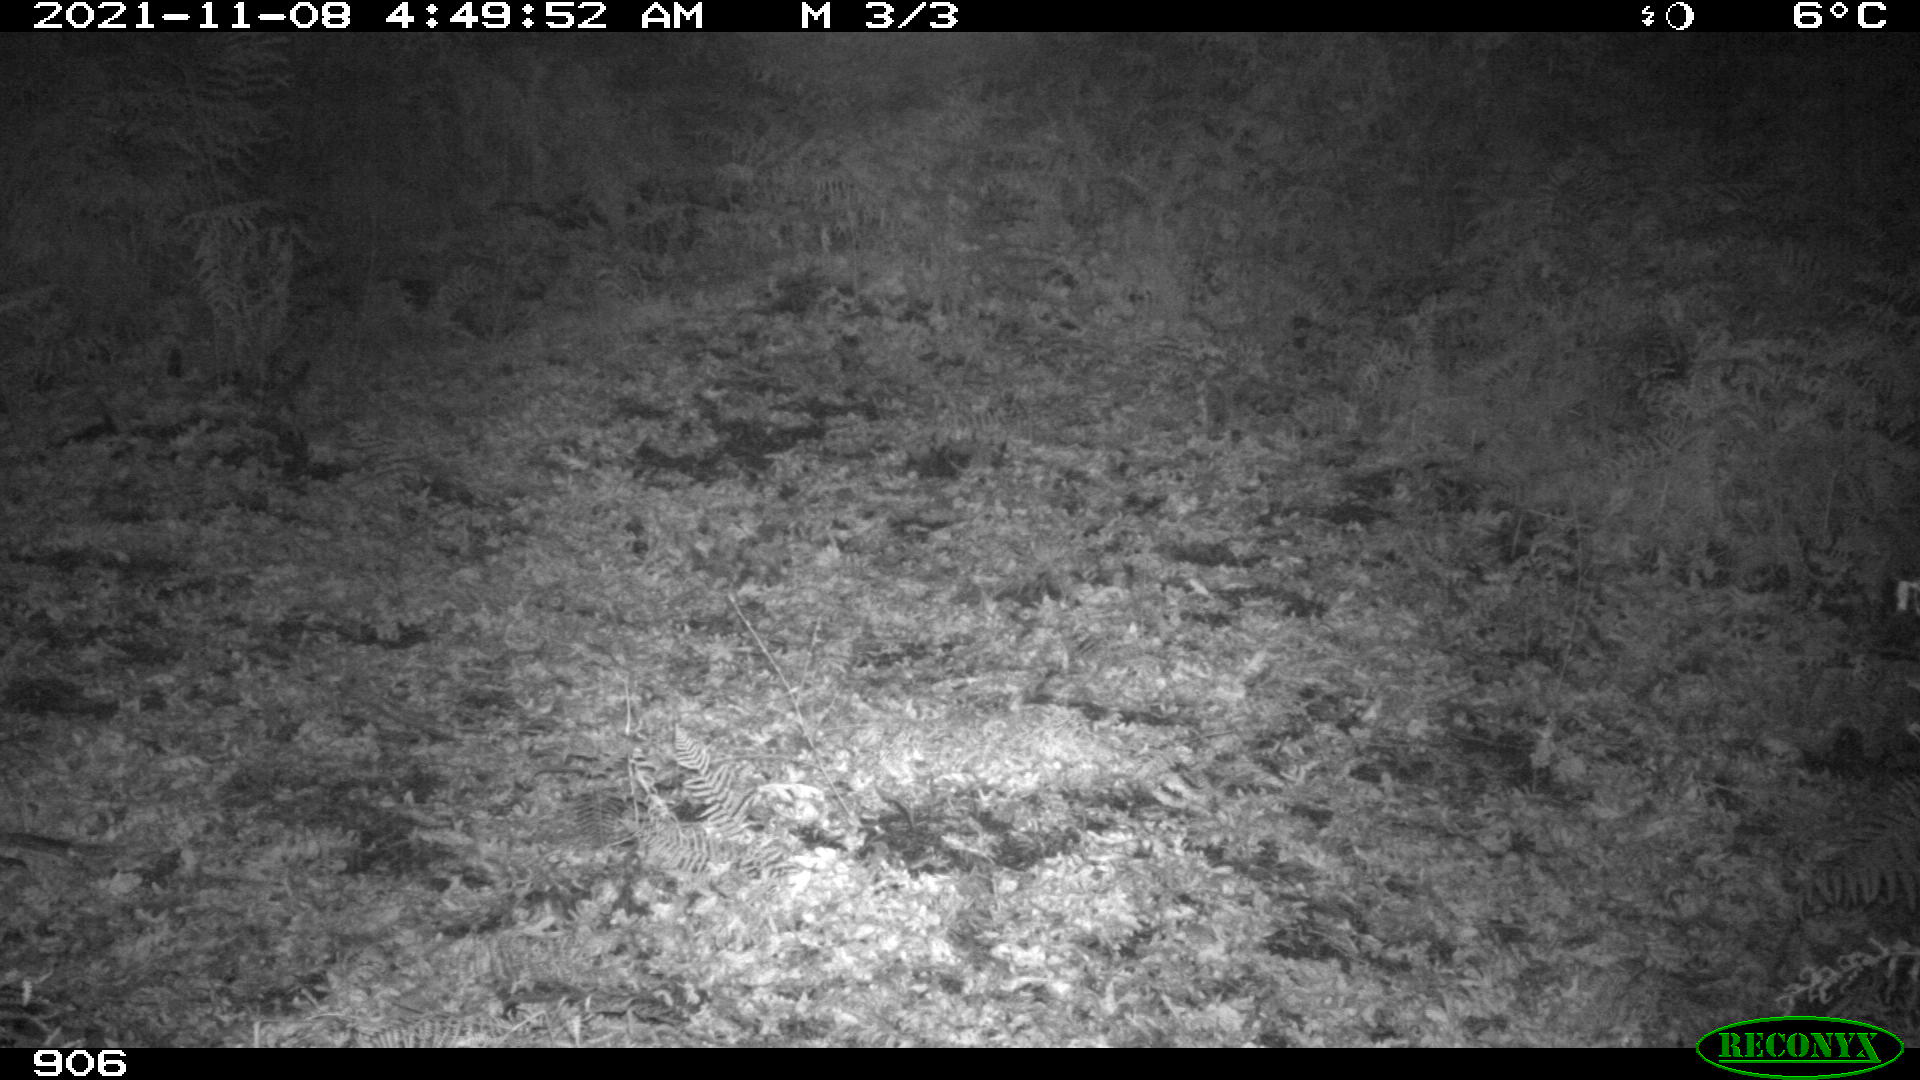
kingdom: Animalia
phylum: Chordata
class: Mammalia
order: Artiodactyla
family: Cervidae
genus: Capreolus
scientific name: Capreolus capreolus
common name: Western roe deer
